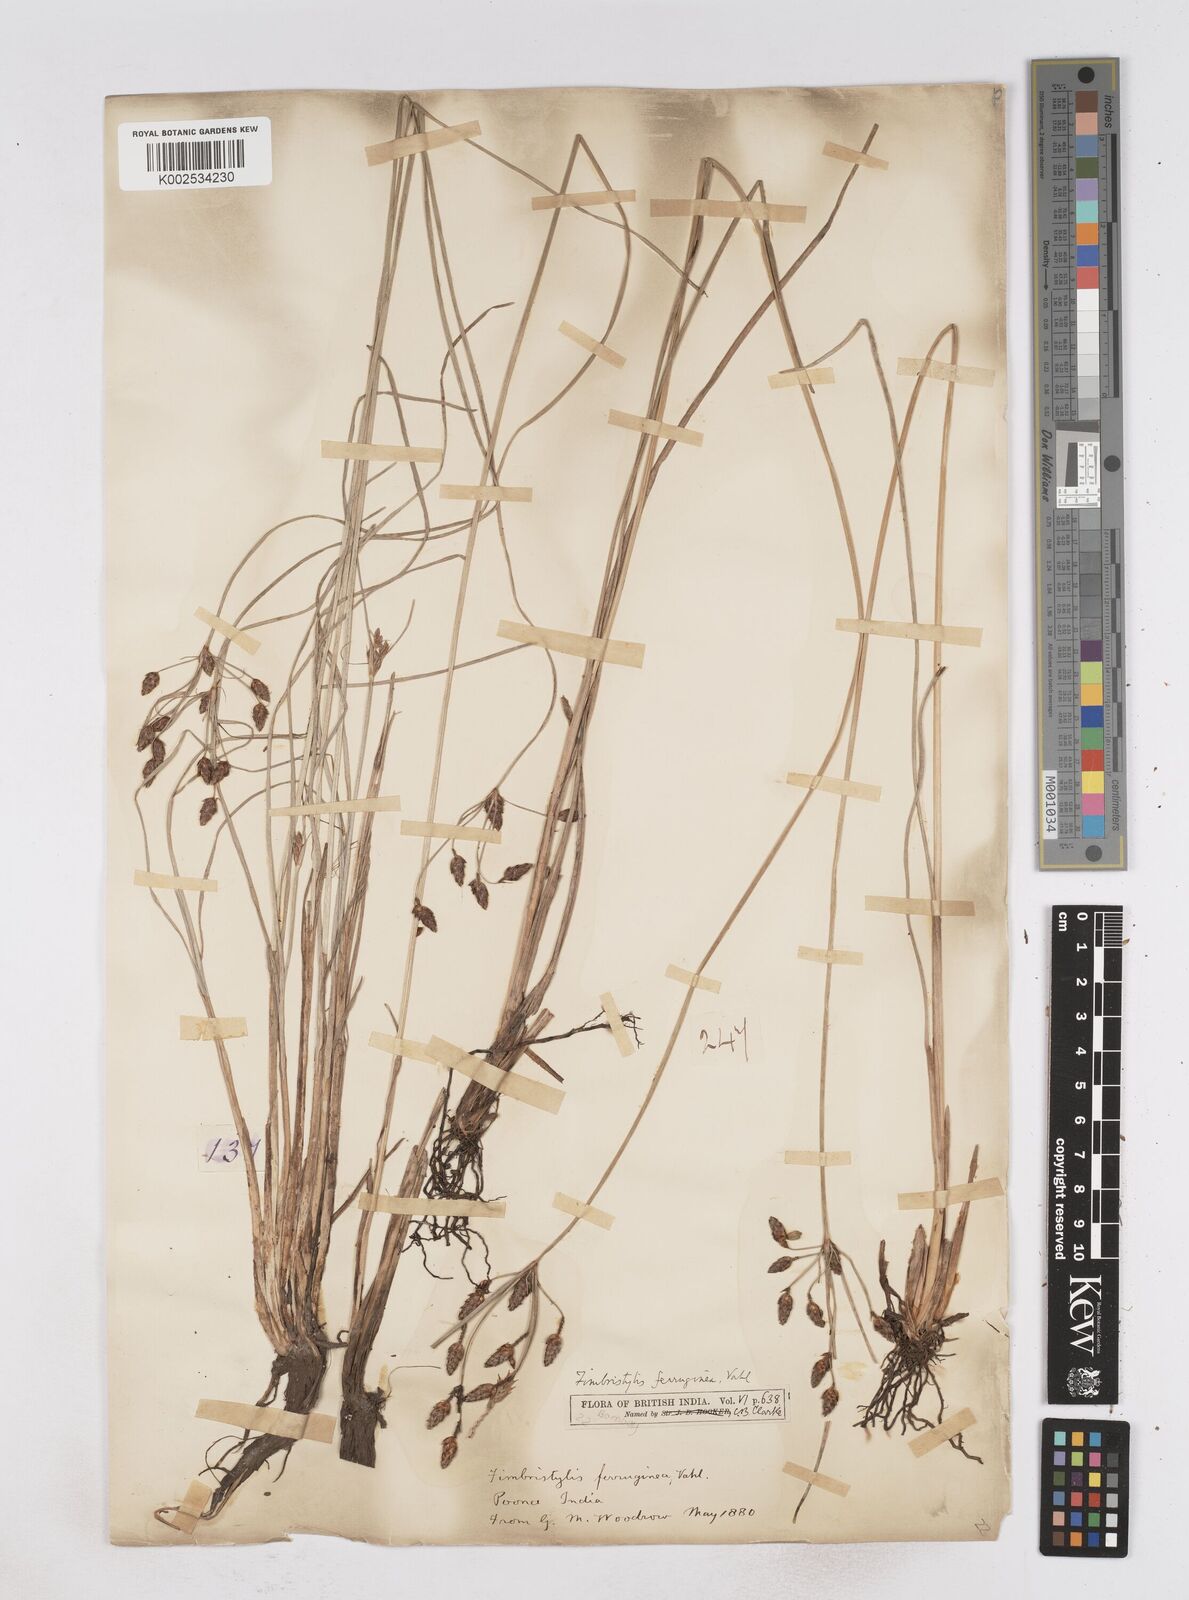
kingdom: Plantae
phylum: Tracheophyta
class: Liliopsida
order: Poales
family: Cyperaceae
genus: Fimbristylis
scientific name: Fimbristylis ferruginea
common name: West indian fimbry
